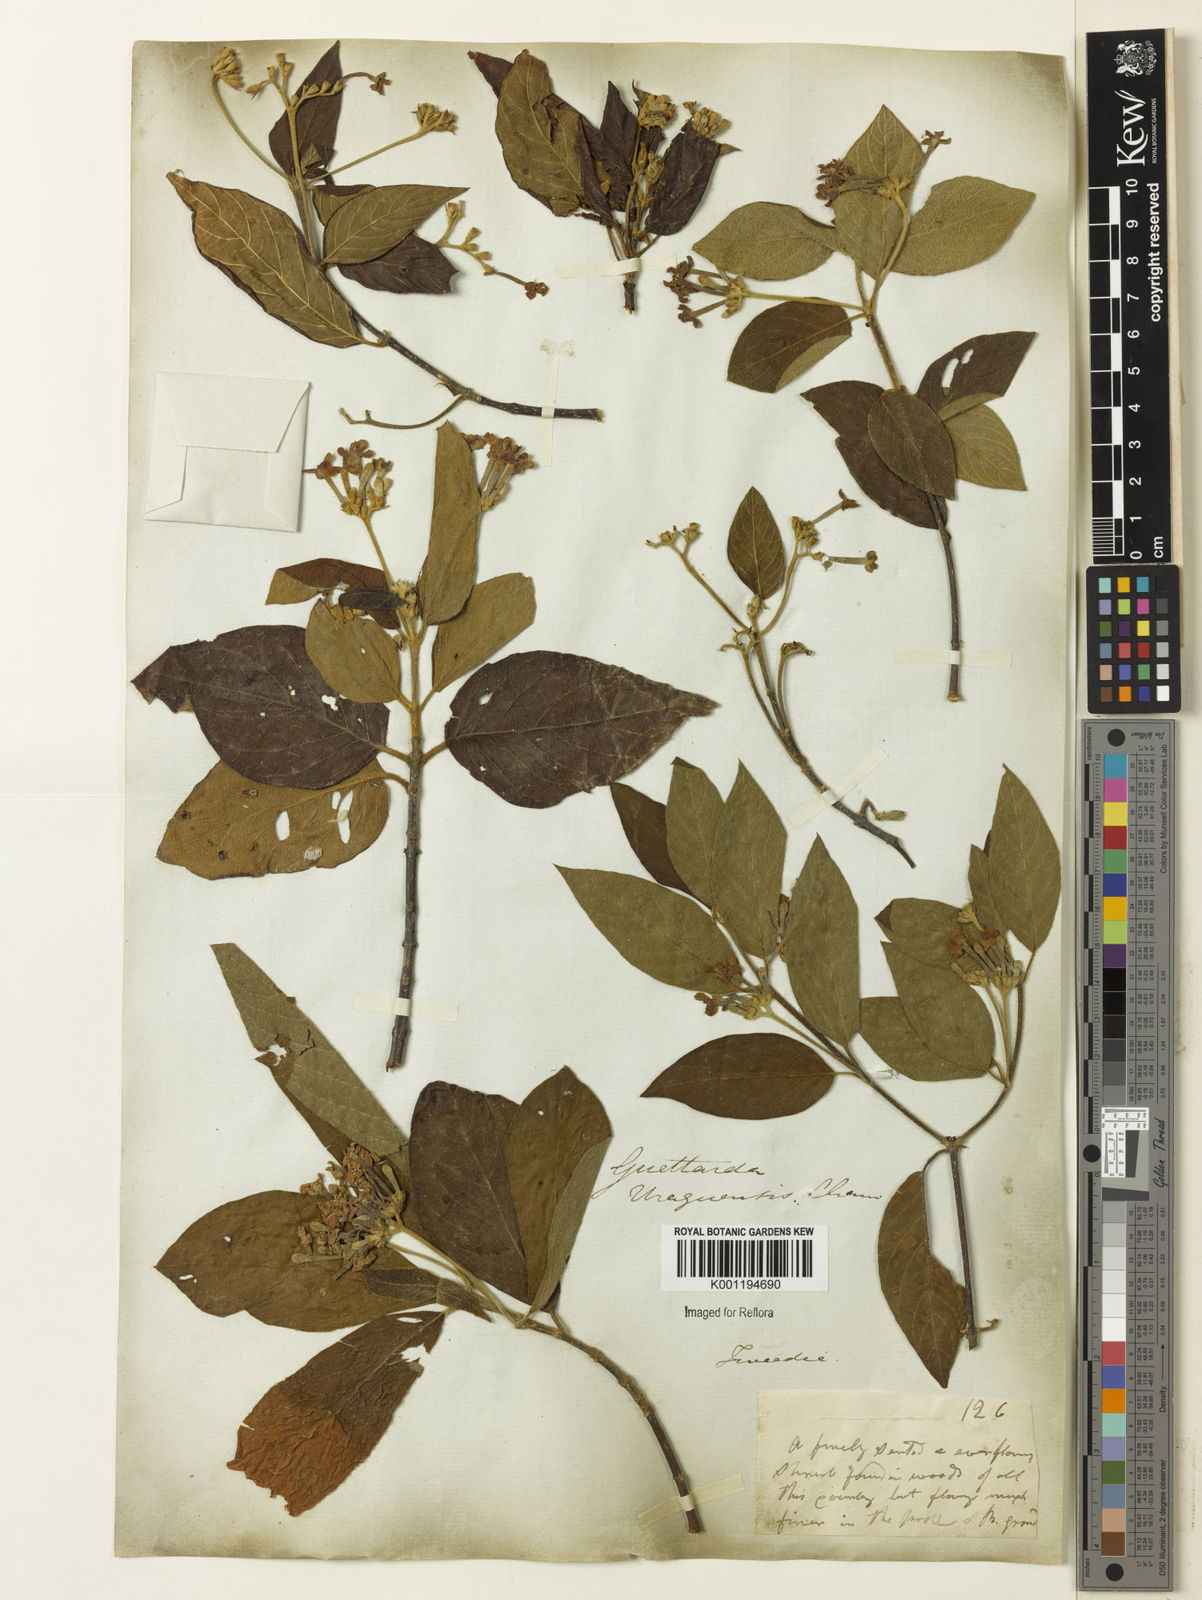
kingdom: Plantae
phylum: Tracheophyta
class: Magnoliopsida
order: Gentianales
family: Rubiaceae
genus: Guettarda
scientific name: Guettarda uruguensis
